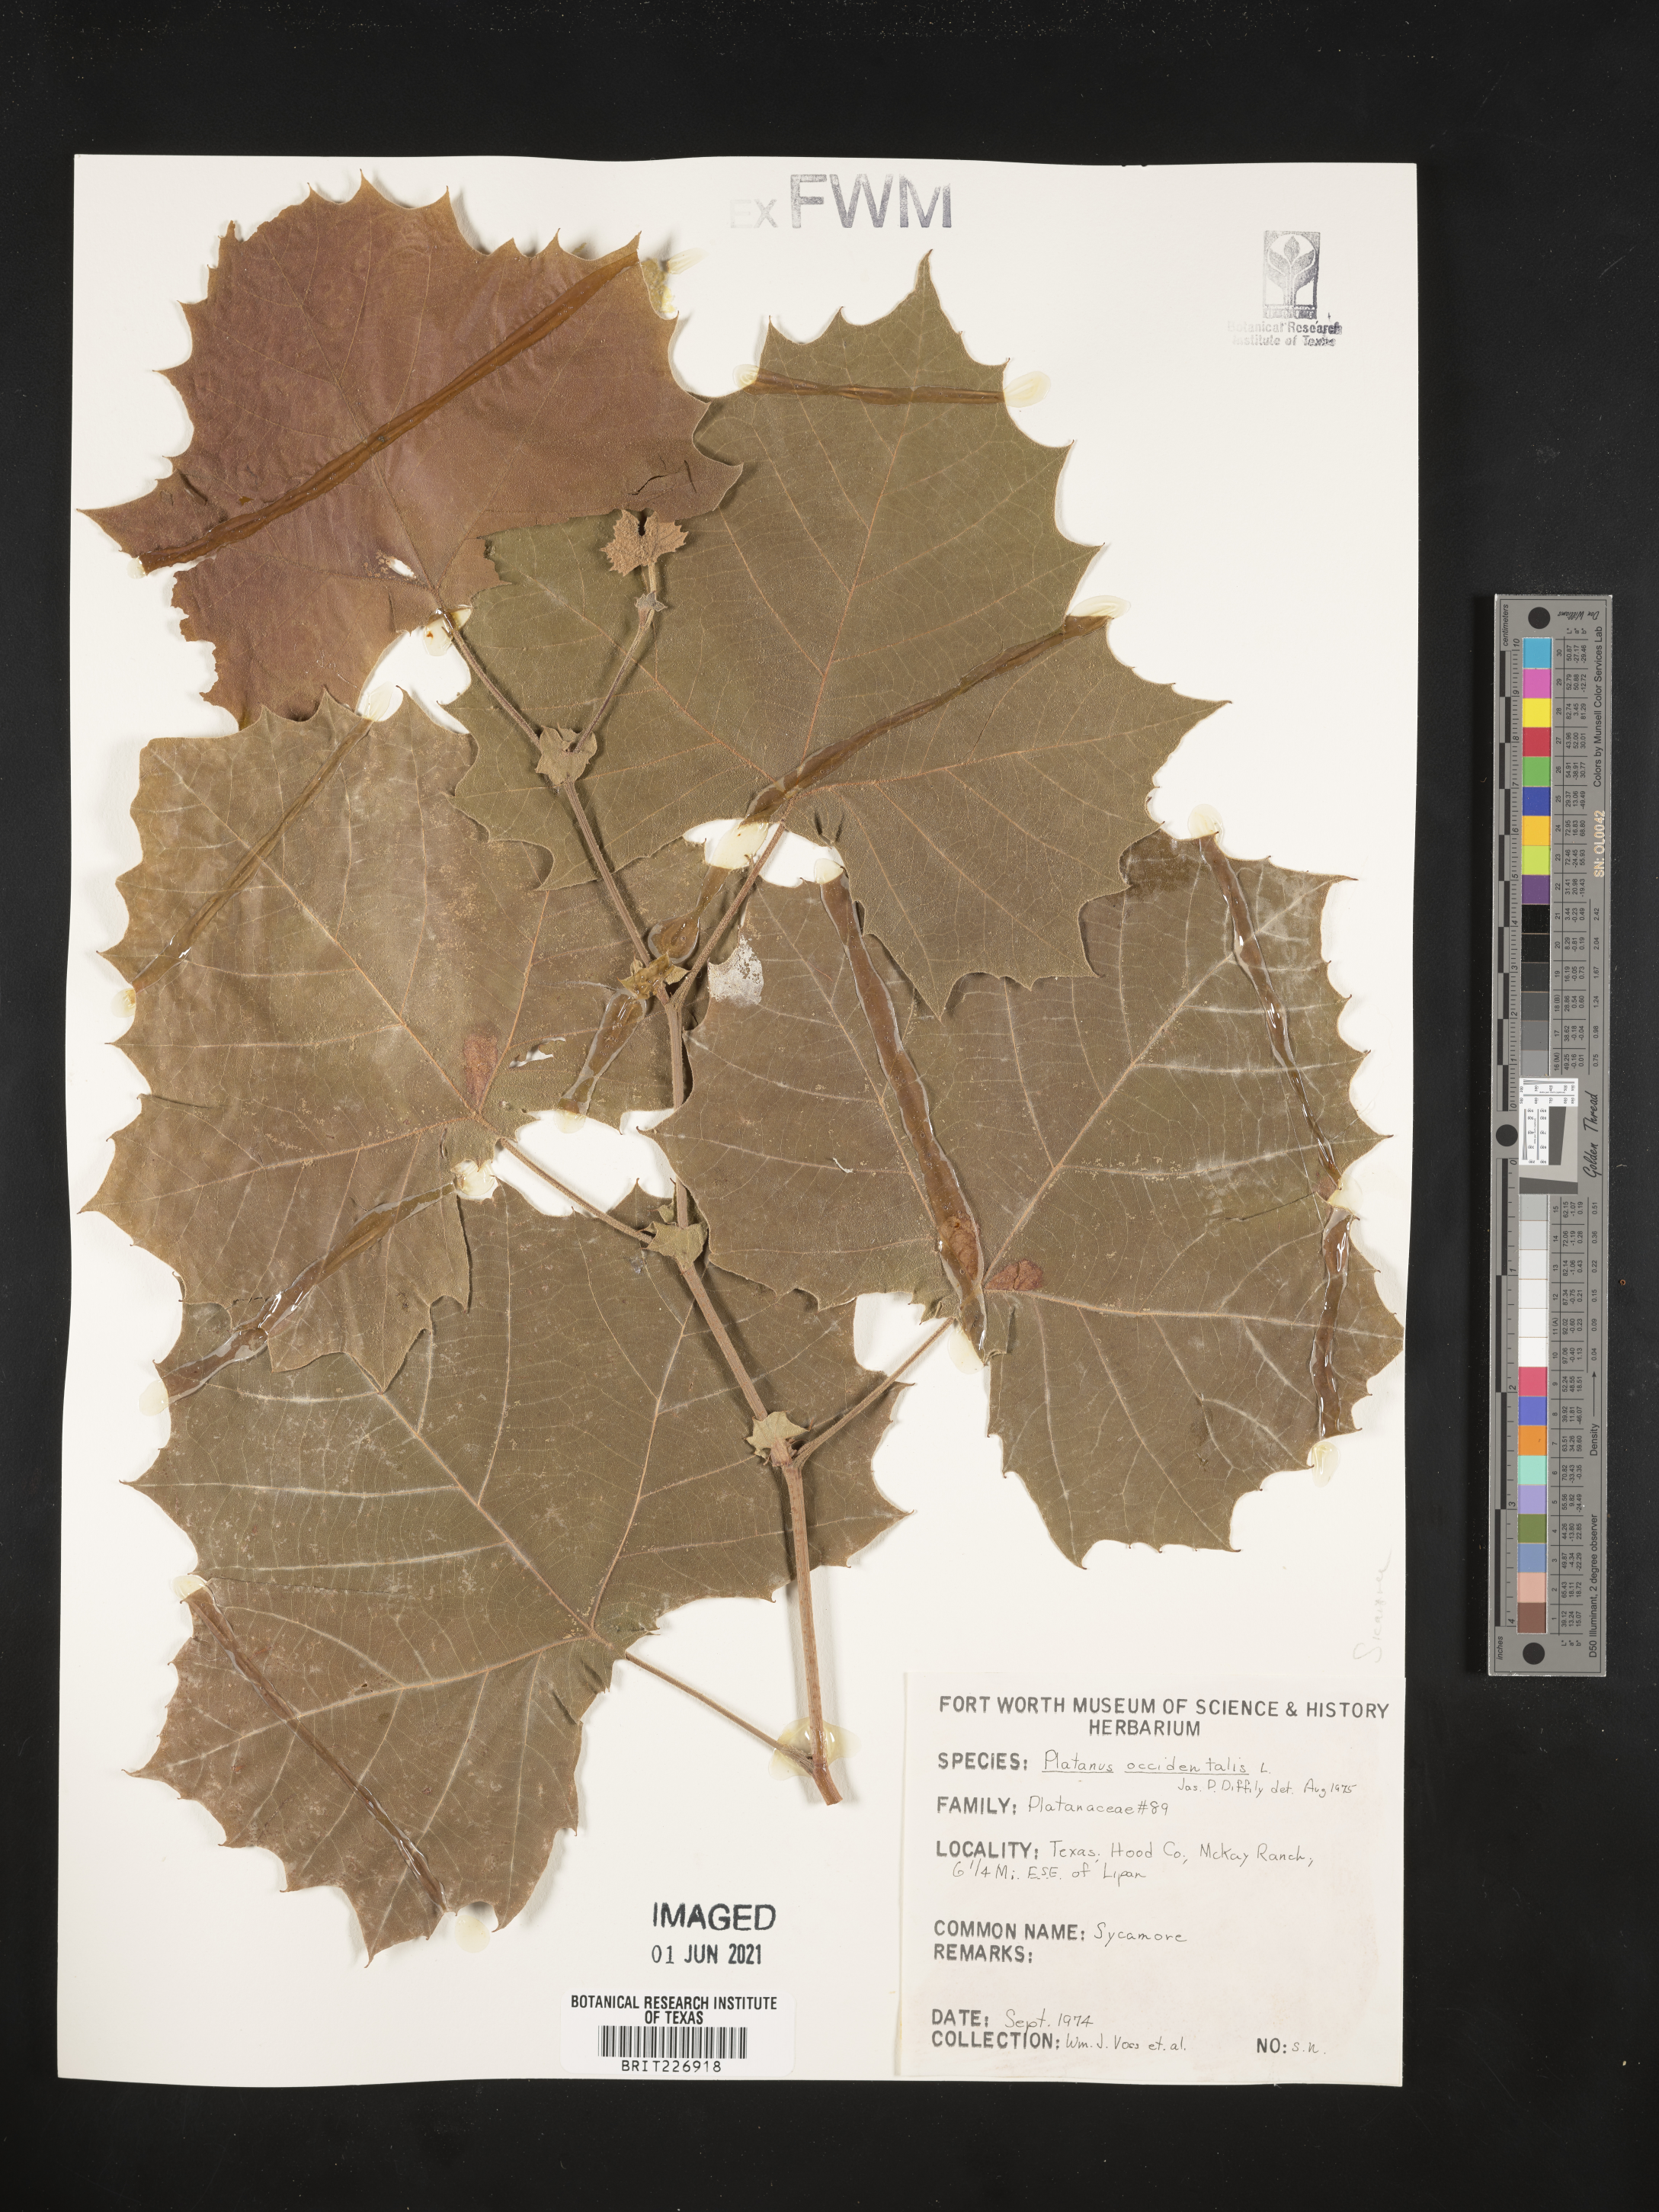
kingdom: Plantae
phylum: Tracheophyta
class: Magnoliopsida
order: Proteales
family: Platanaceae
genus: Platanus
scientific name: Platanus occidentalis
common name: American sycamore
